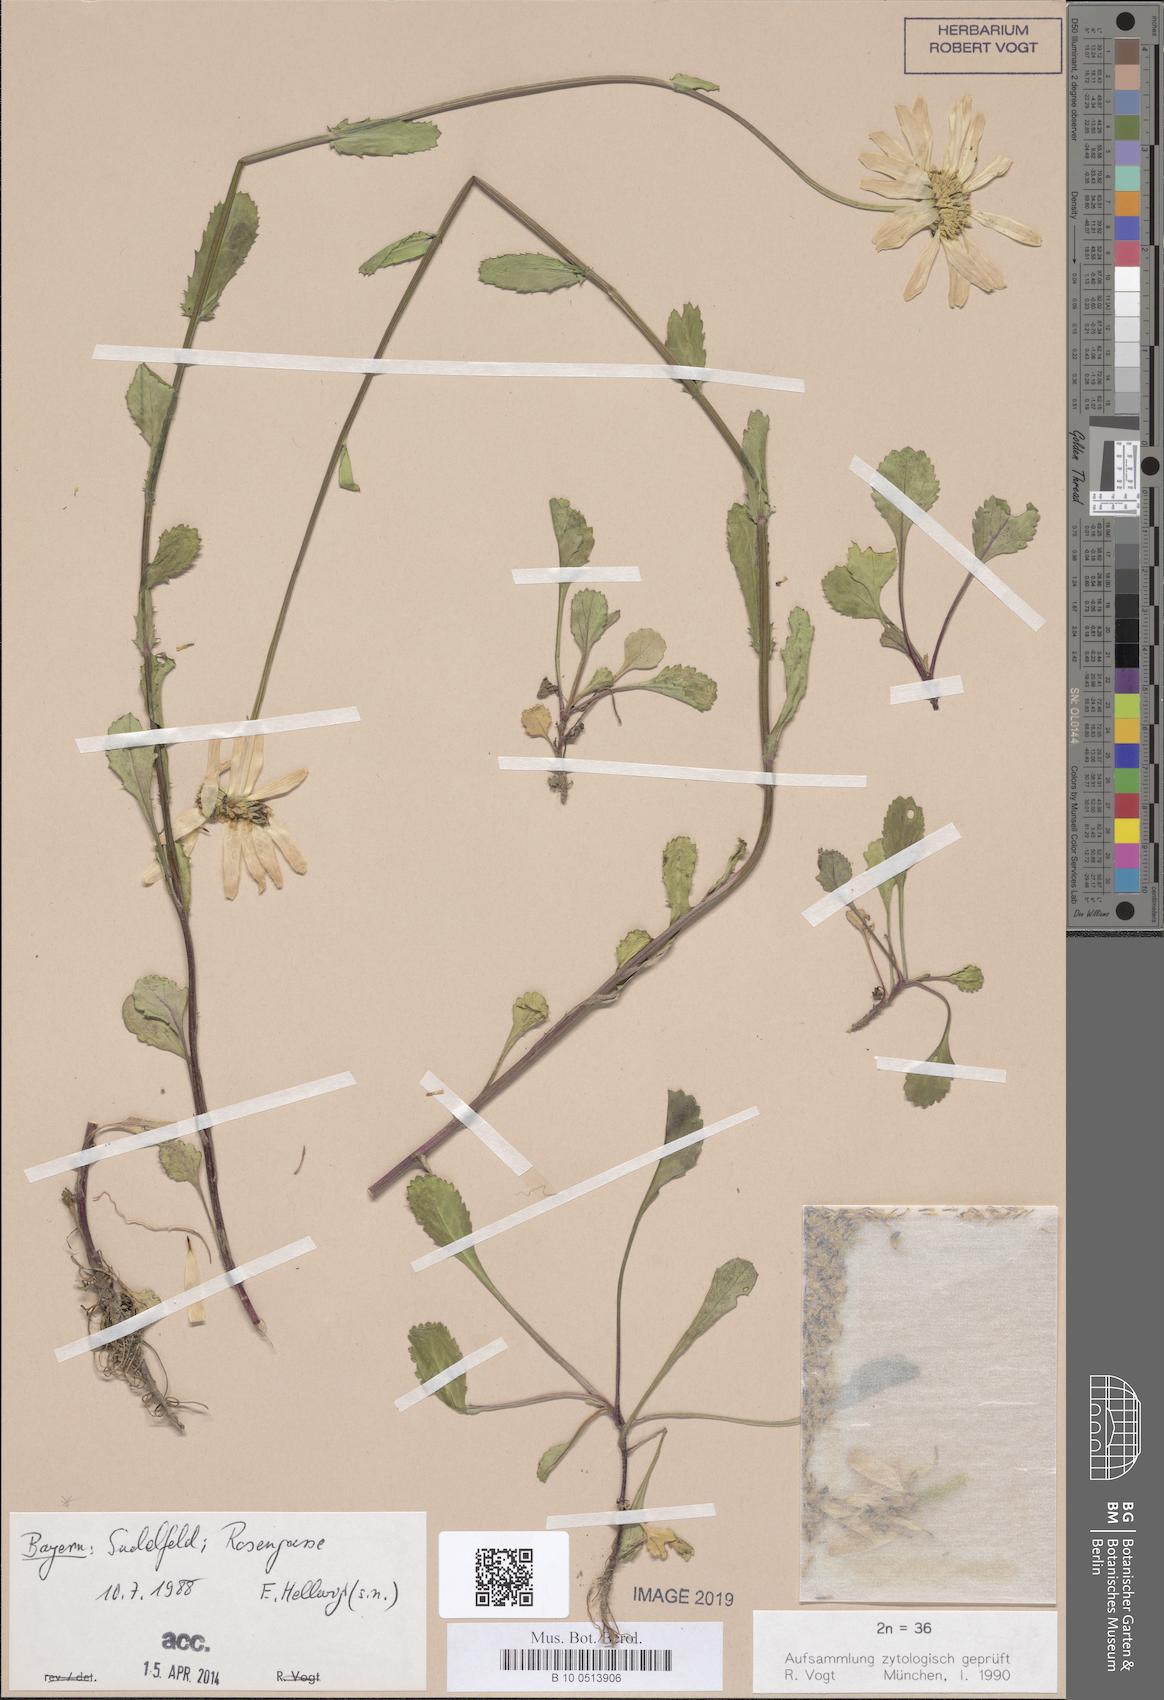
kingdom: Plantae
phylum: Tracheophyta
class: Magnoliopsida
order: Asterales
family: Asteraceae
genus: Leucanthemum
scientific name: Leucanthemum ircutianum
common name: Daisy
